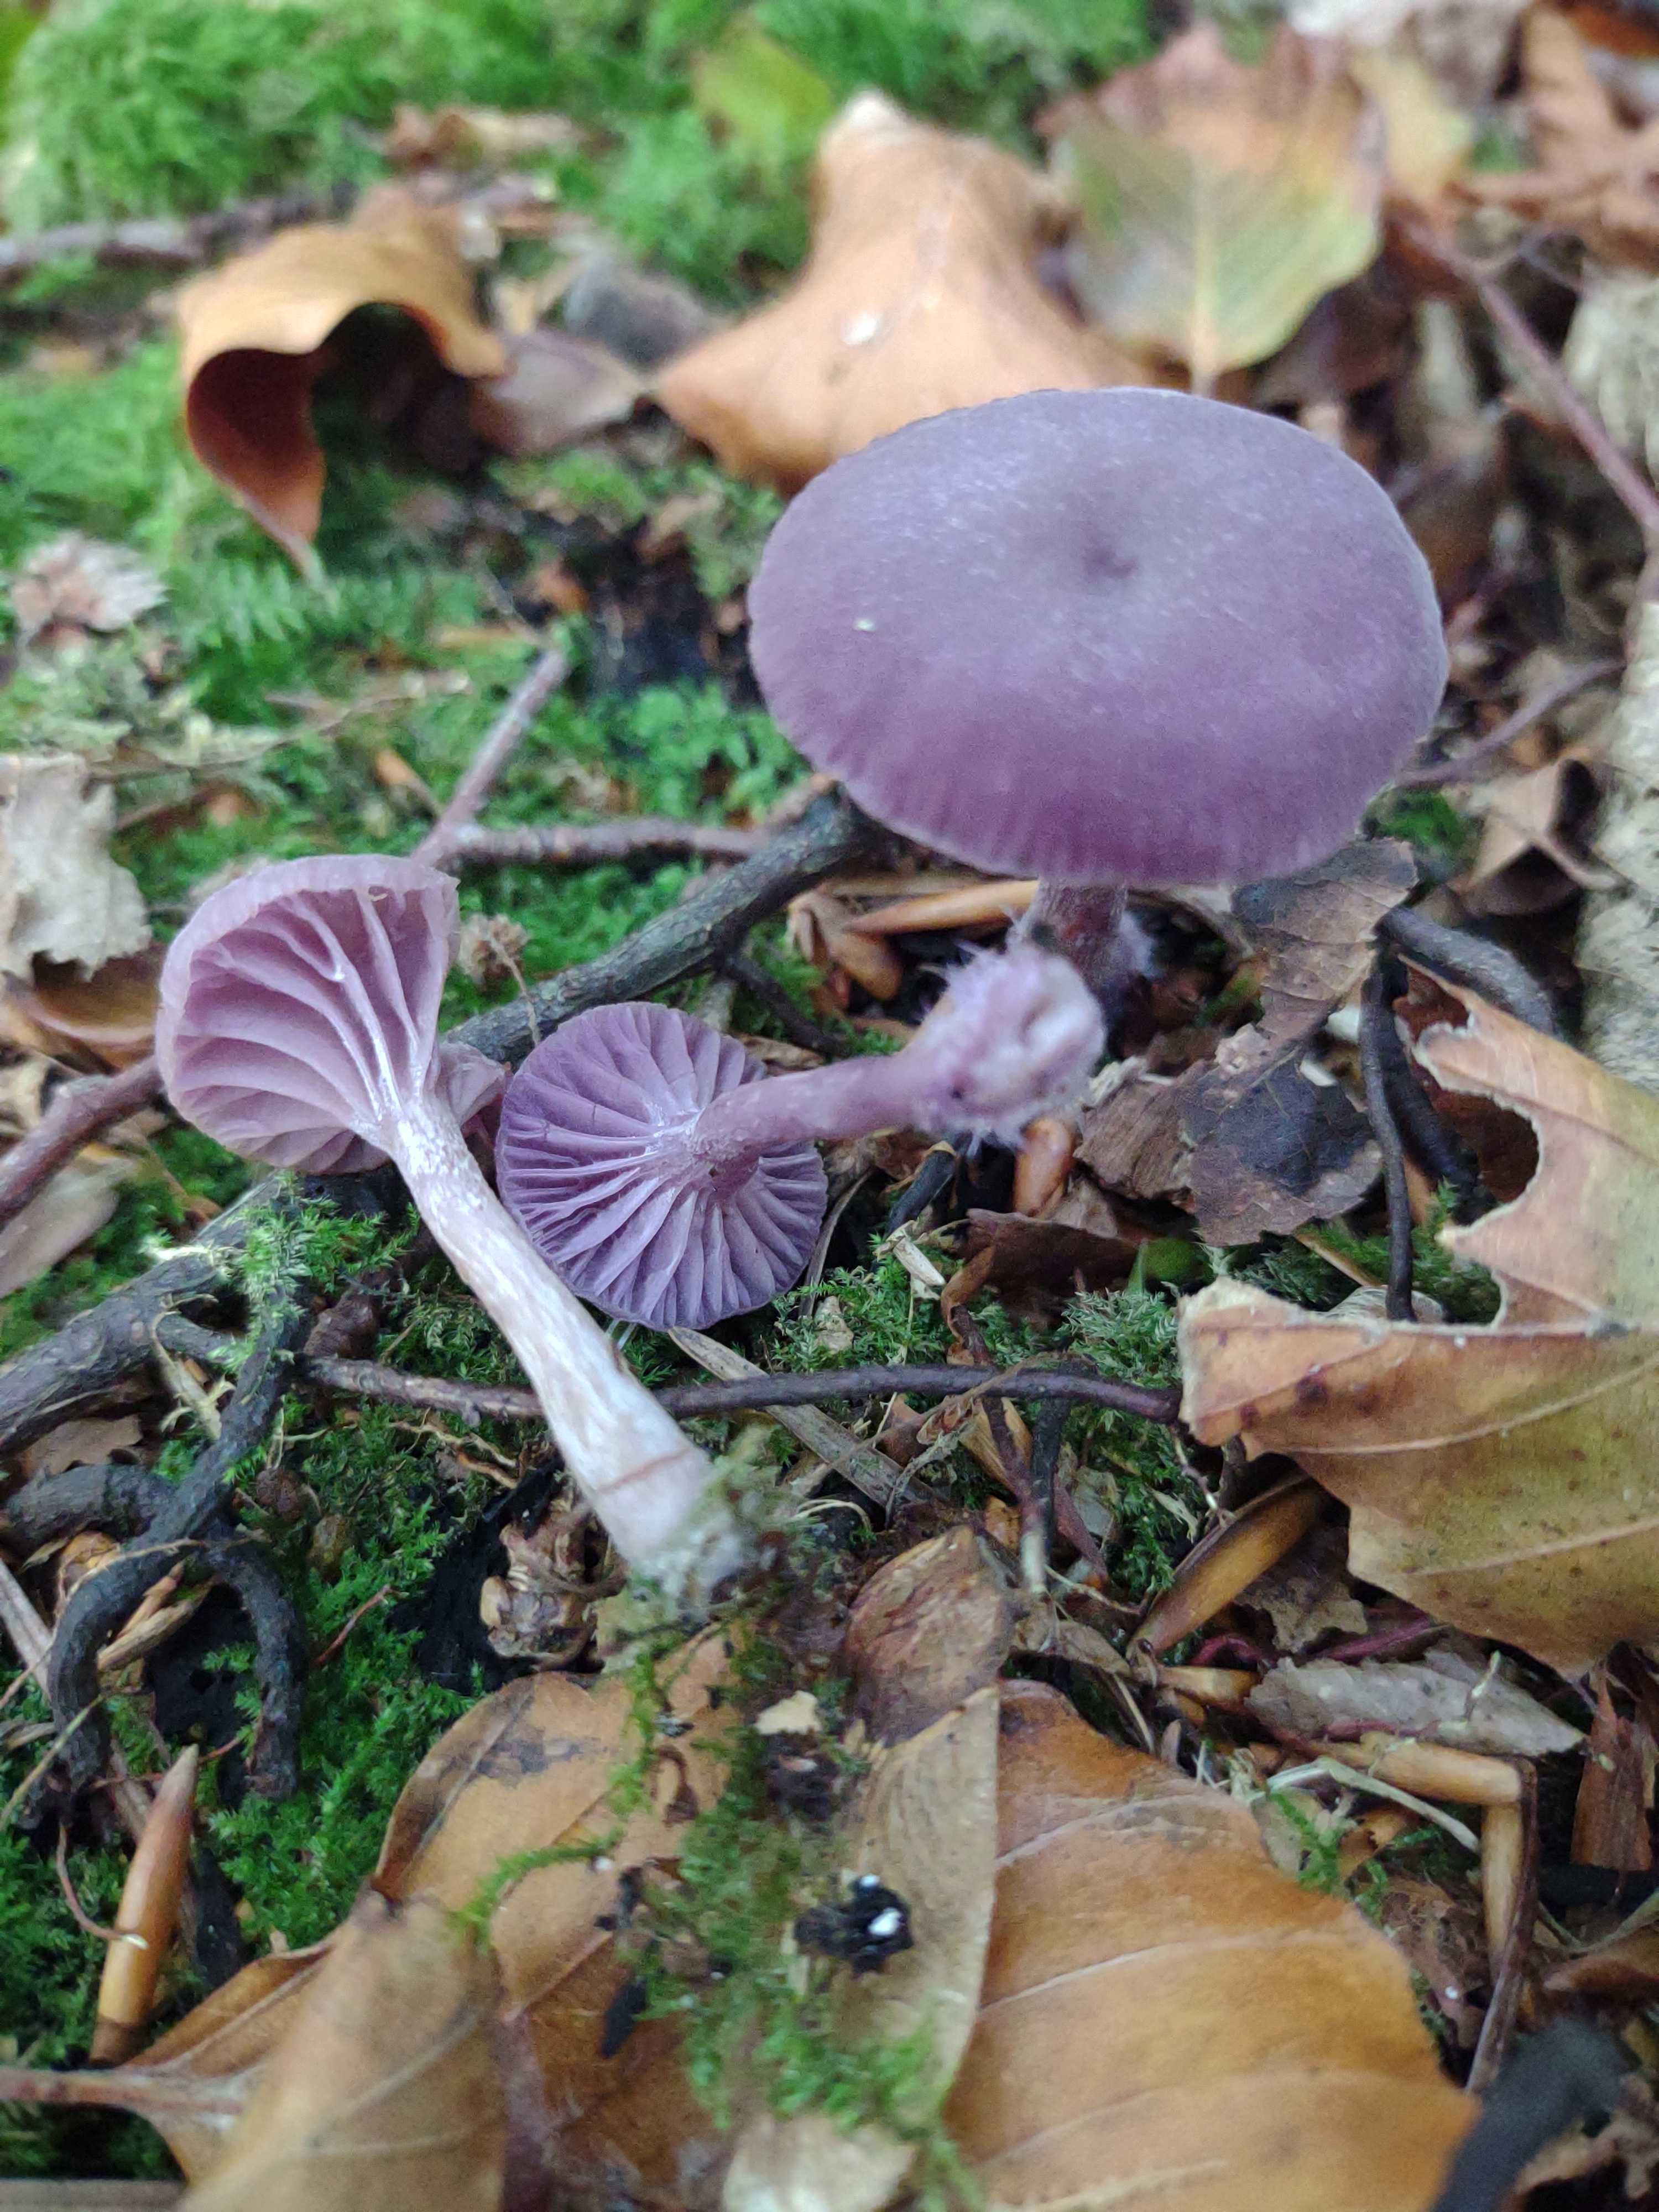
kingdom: Fungi
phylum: Basidiomycota
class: Agaricomycetes
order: Agaricales
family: Hydnangiaceae
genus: Laccaria
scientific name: Laccaria amethystina
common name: violet ametysthat
